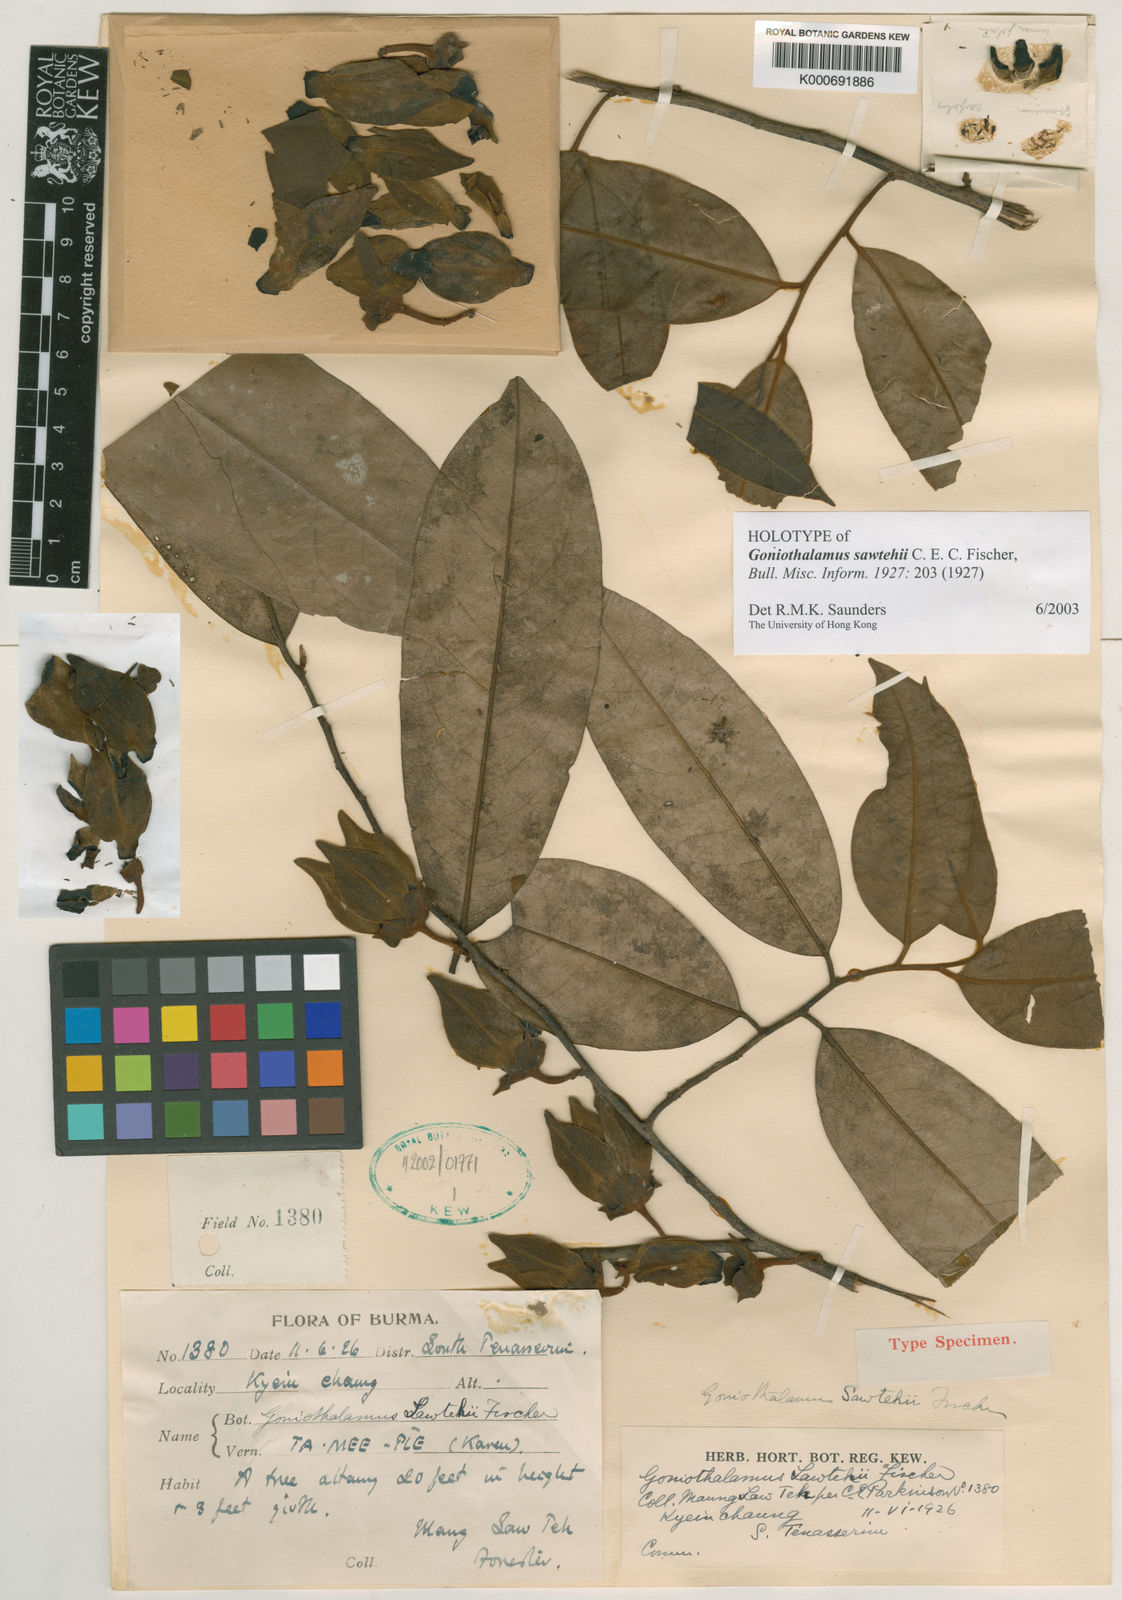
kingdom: Plantae
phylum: Tracheophyta
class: Magnoliopsida
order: Magnoliales
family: Annonaceae
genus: Goniothalamus
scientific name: Goniothalamus sawtehii
